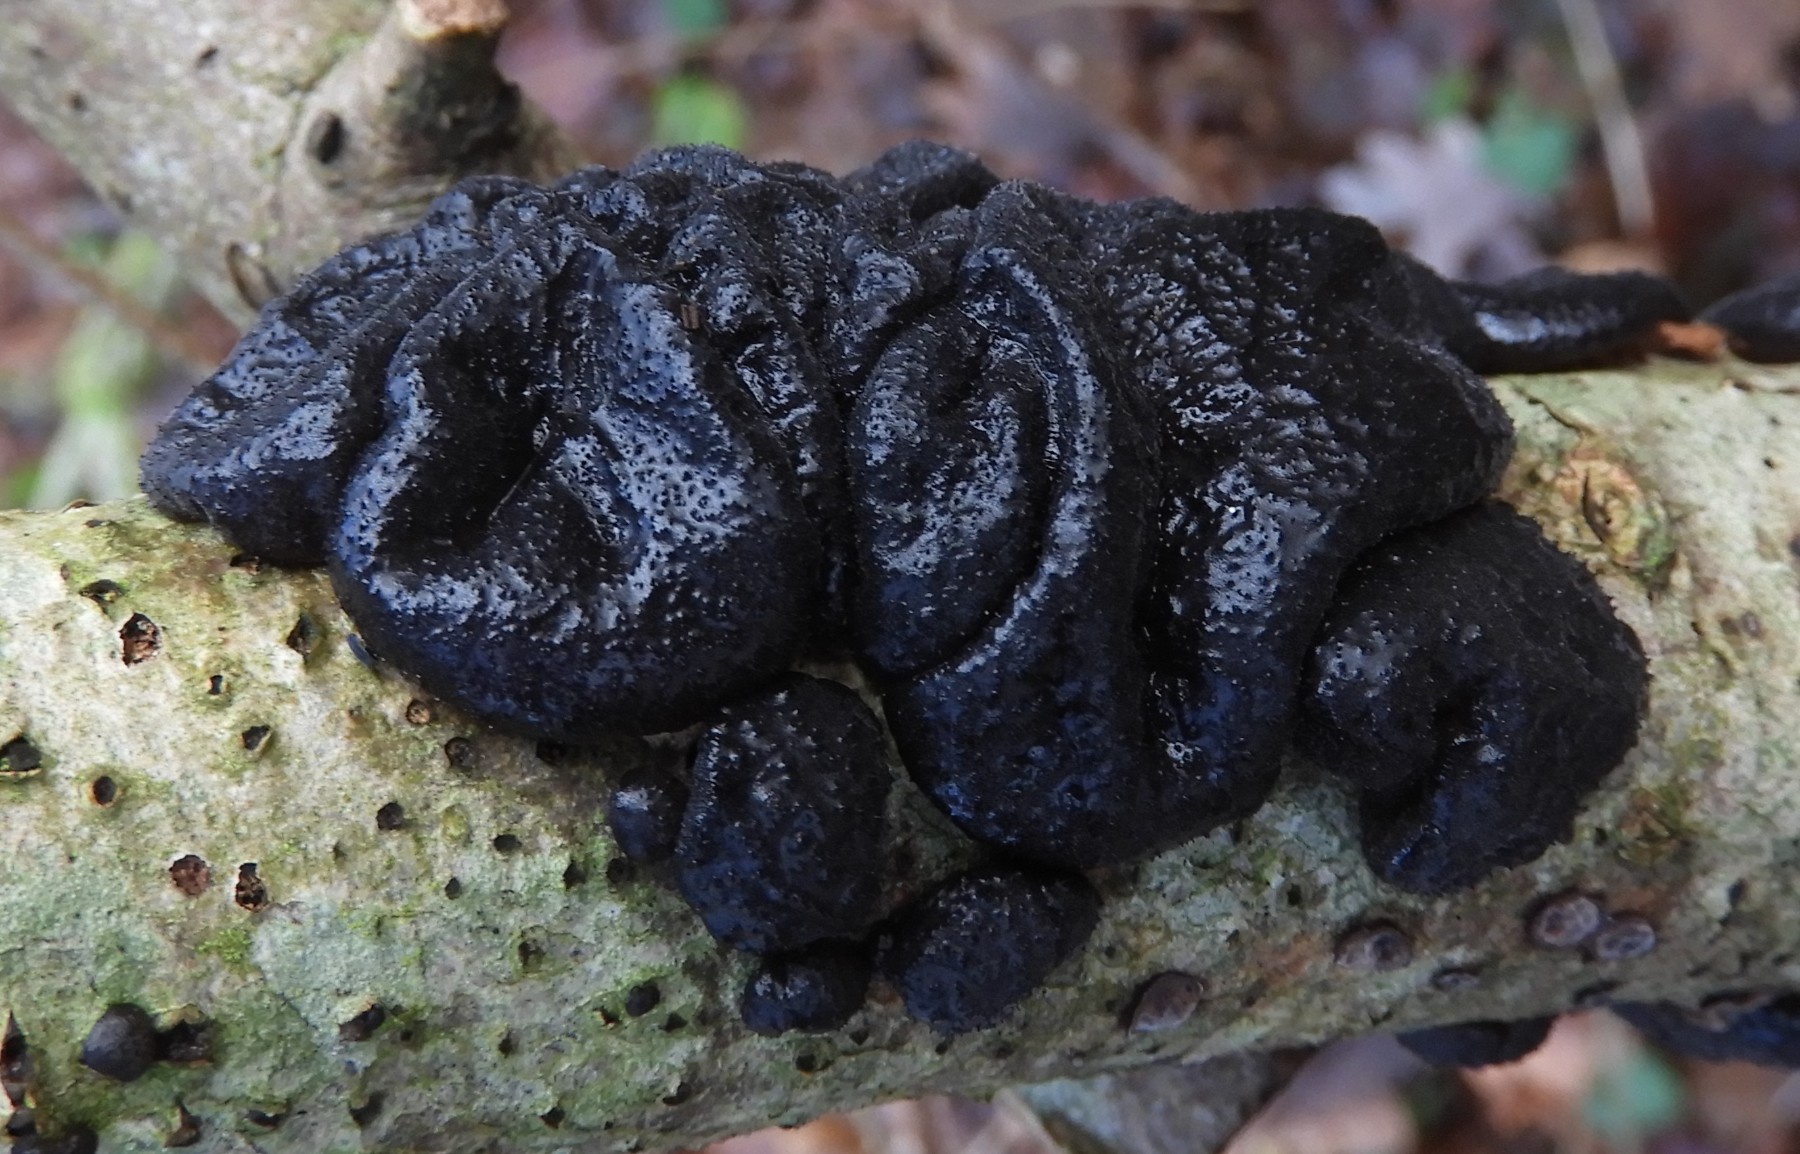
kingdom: Fungi
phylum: Basidiomycota
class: Agaricomycetes
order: Auriculariales
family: Auriculariaceae
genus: Exidia
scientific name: Exidia glandulosa
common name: ege-bævretop
